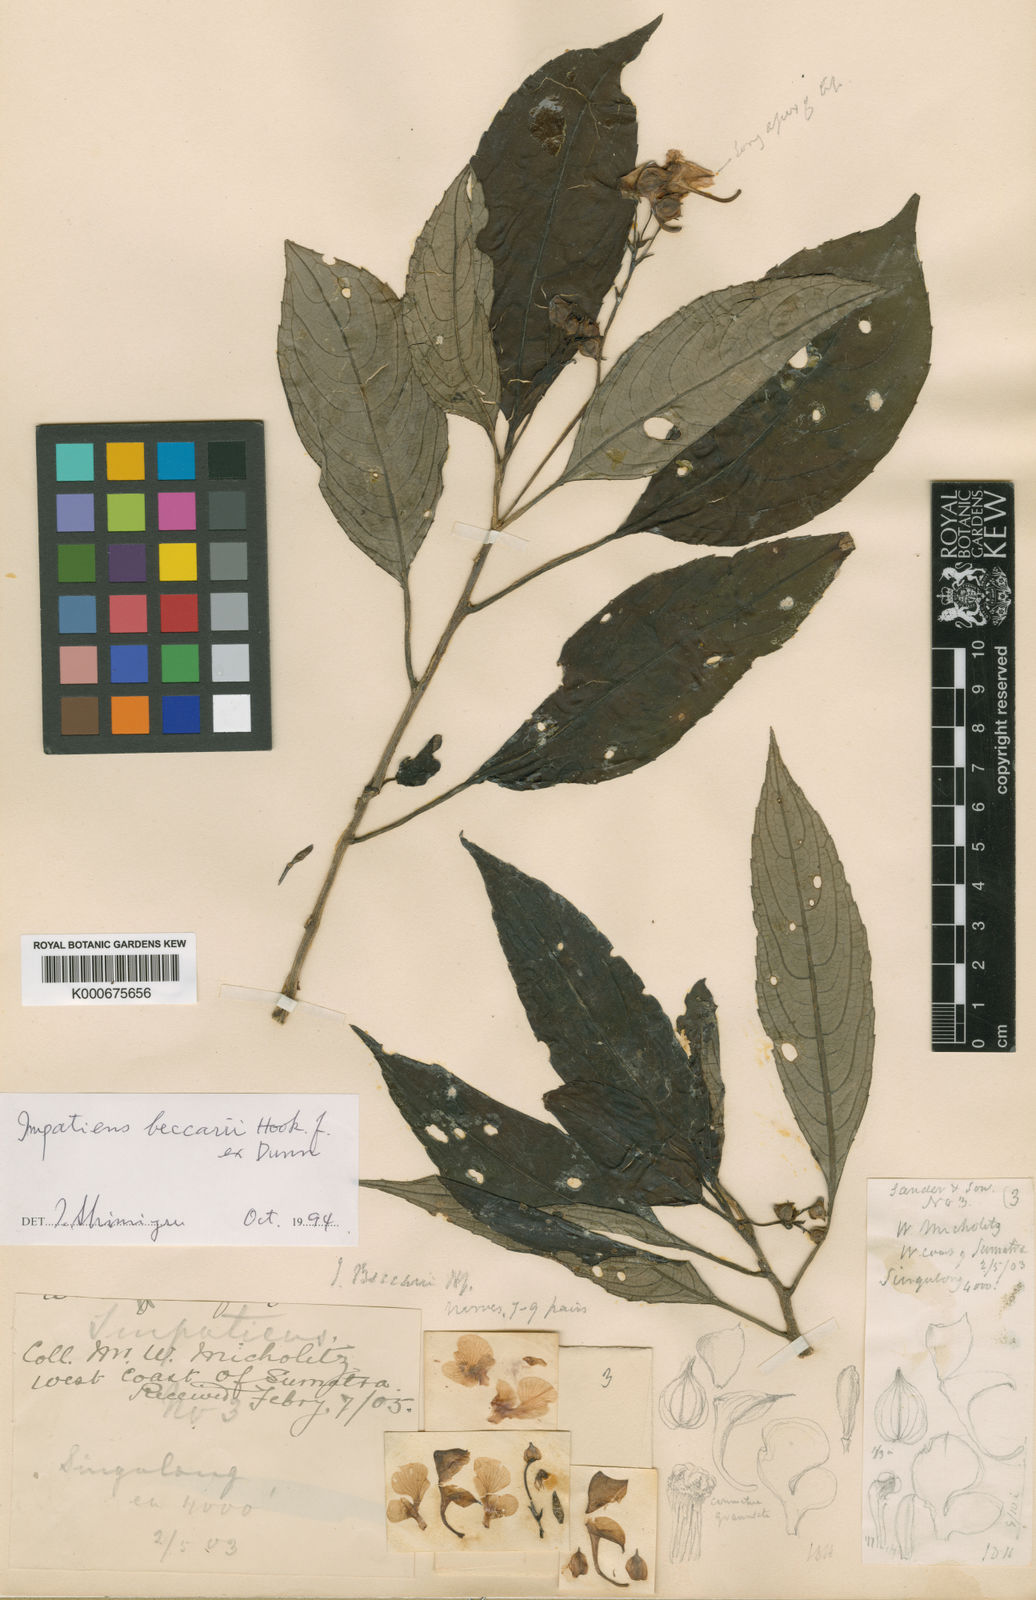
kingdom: Plantae
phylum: Tracheophyta
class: Magnoliopsida
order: Ericales
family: Balsaminaceae
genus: Impatiens
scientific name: Impatiens beccarii
